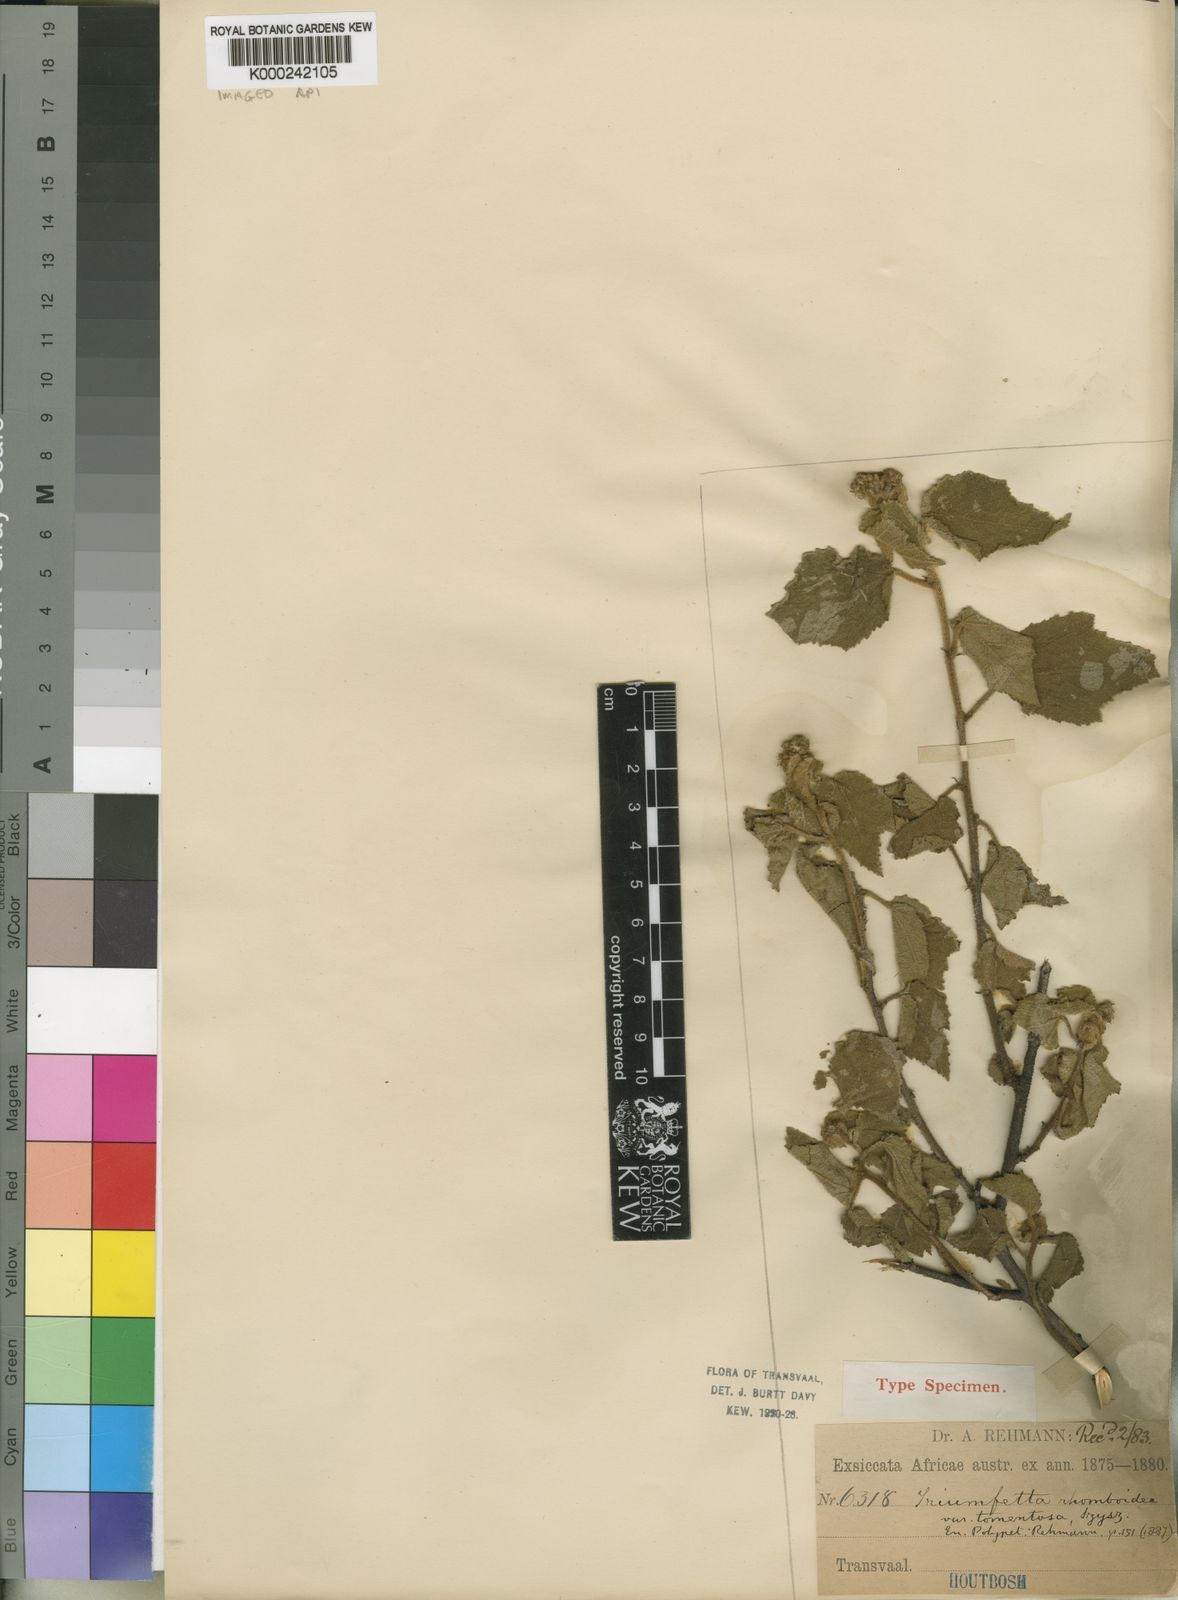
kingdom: Plantae
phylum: Tracheophyta
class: Magnoliopsida
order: Malvales
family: Malvaceae
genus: Triumfetta
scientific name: Triumfetta rhomboidea
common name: Diamond burbark
